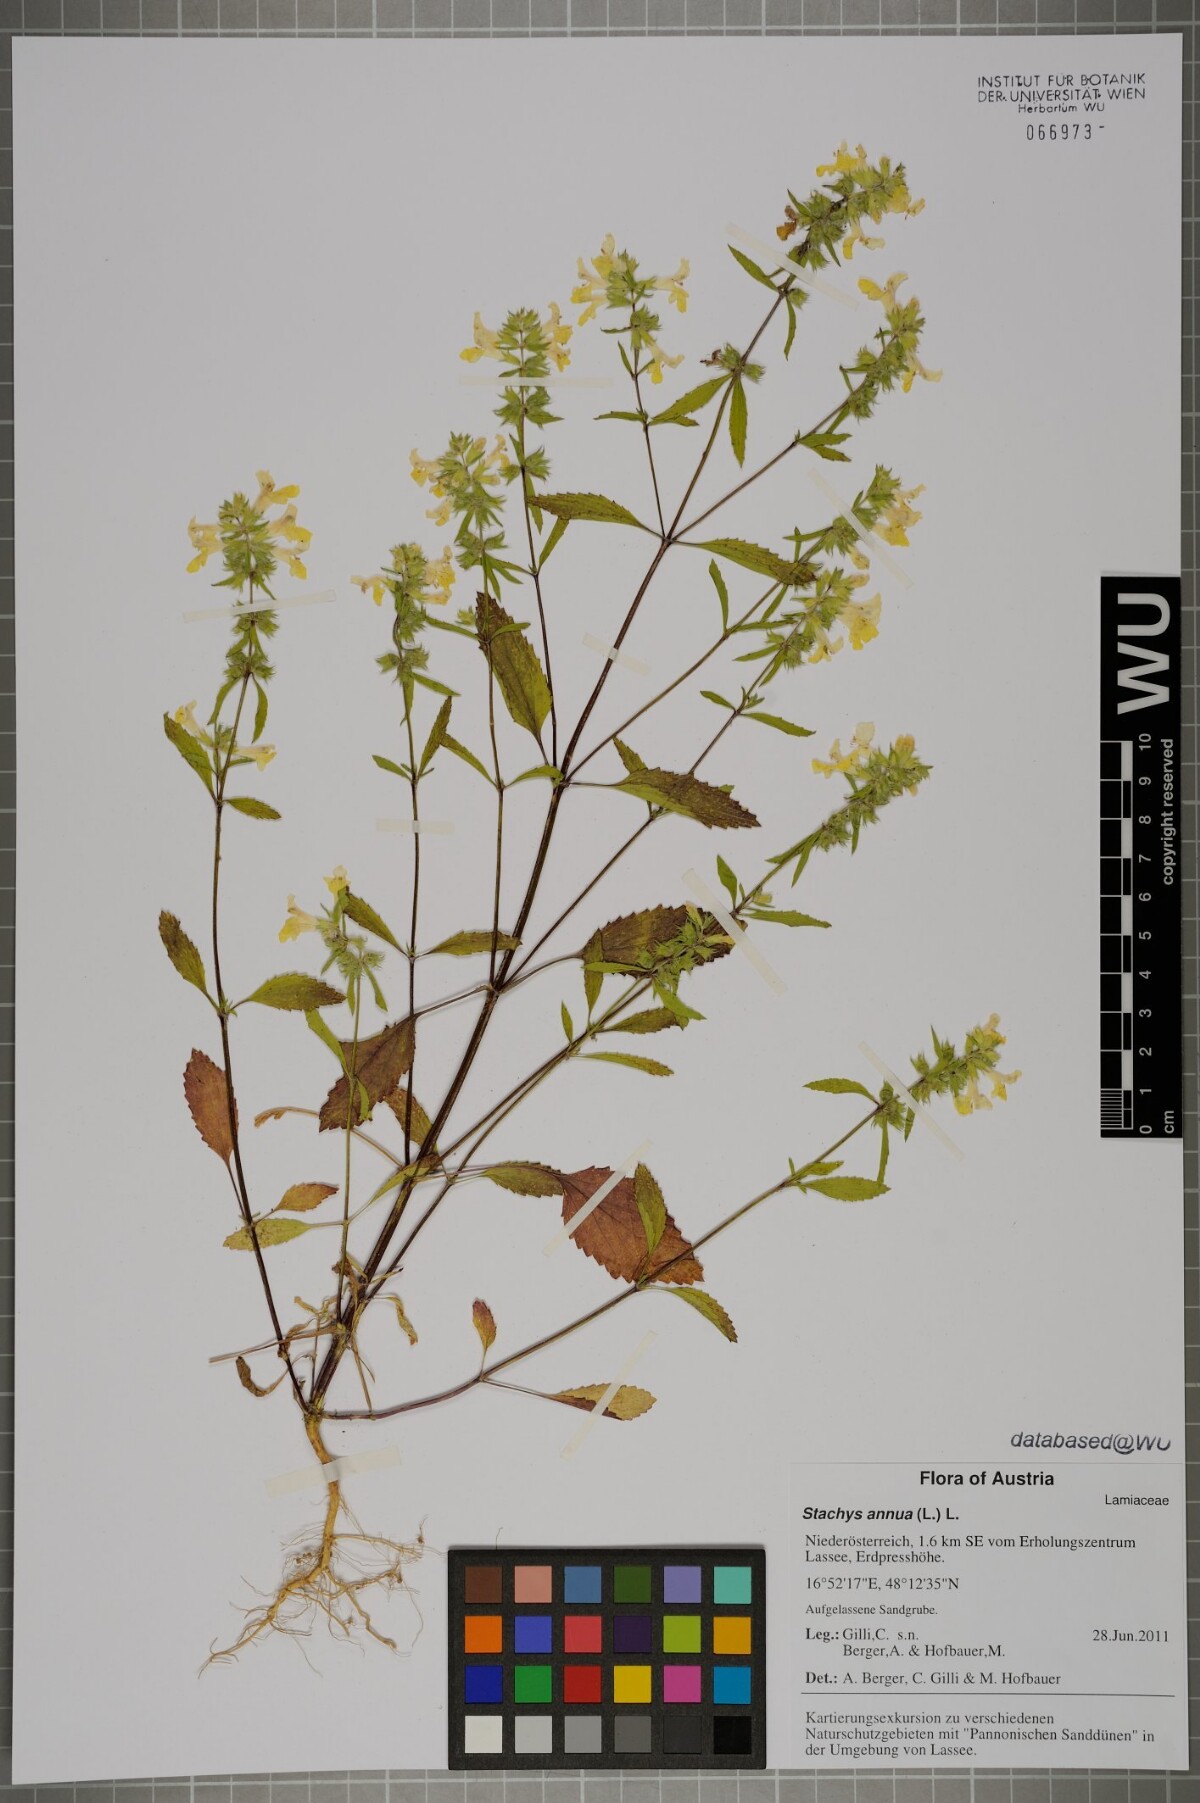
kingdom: Plantae
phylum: Tracheophyta
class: Magnoliopsida
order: Lamiales
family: Lamiaceae
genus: Stachys
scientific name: Stachys annua
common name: Annual yellow-woundwort
